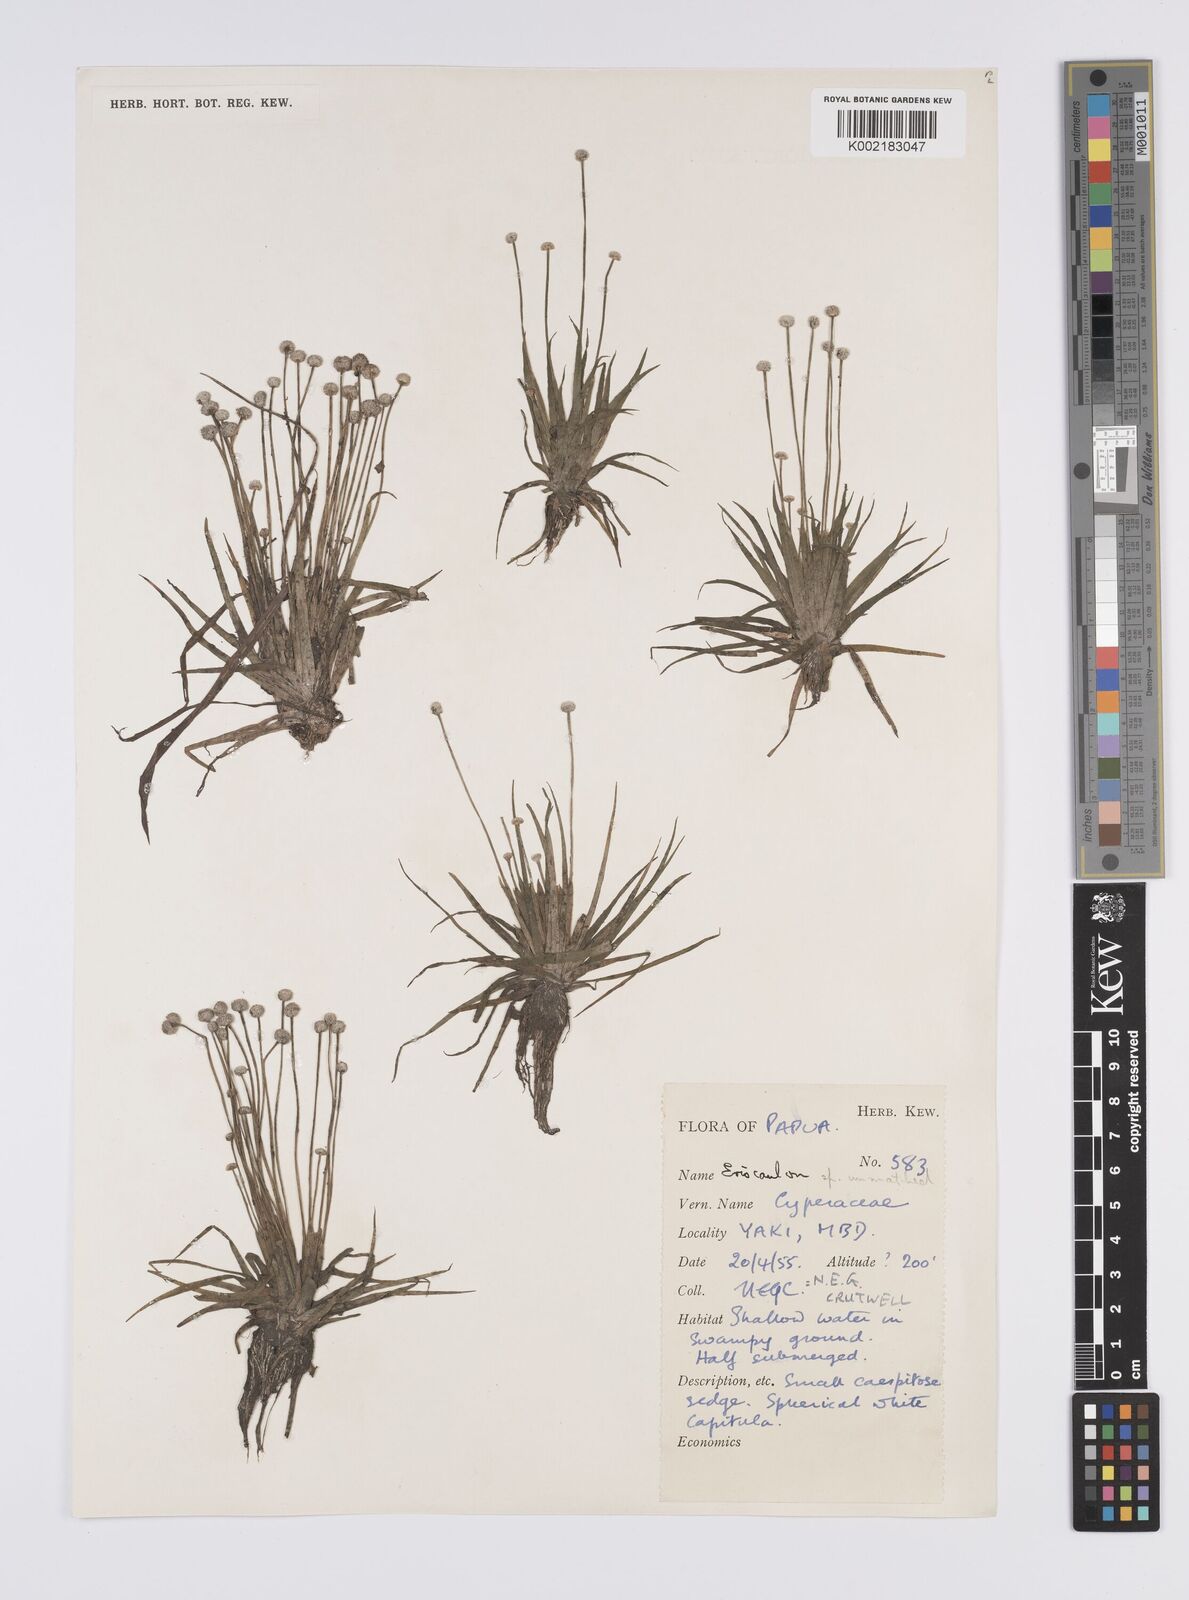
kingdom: Plantae
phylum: Tracheophyta
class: Liliopsida
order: Poales
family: Eriocaulaceae
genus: Eriocaulon
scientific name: Eriocaulon
